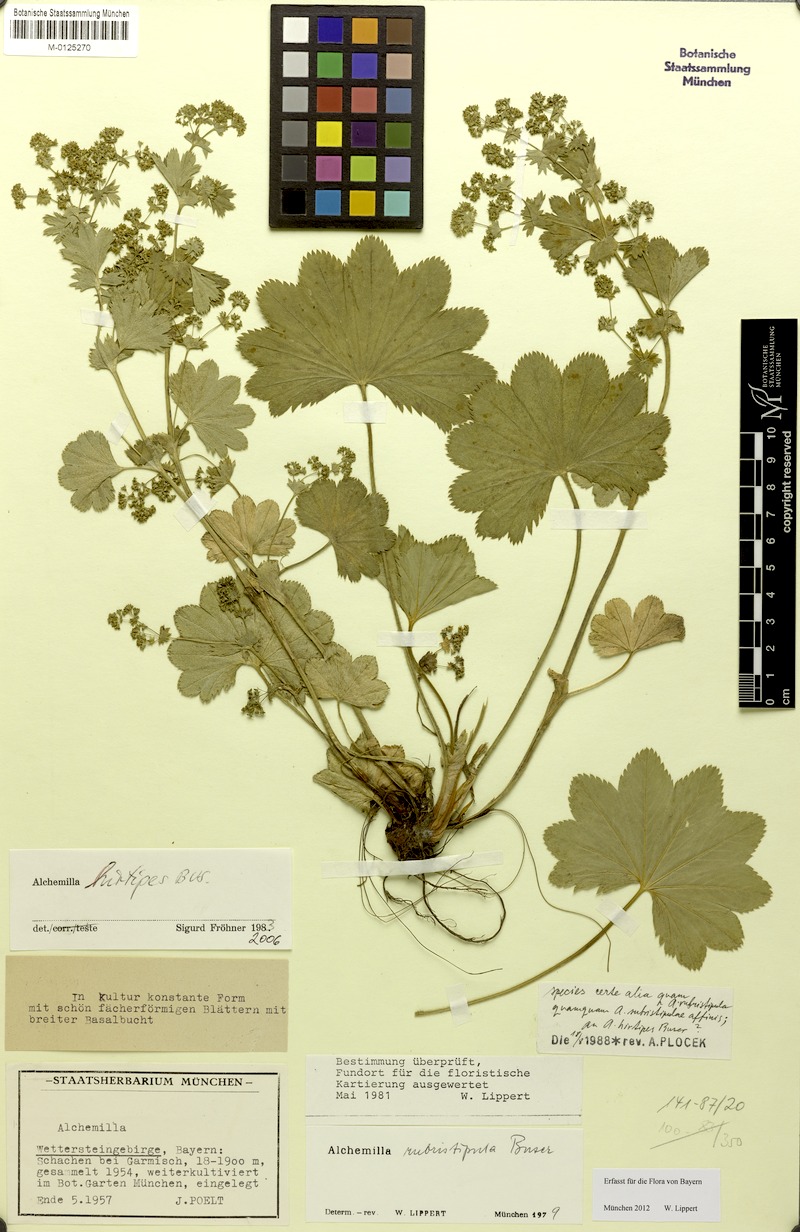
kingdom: Plantae
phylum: Tracheophyta
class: Magnoliopsida
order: Rosales
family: Rosaceae
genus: Alchemilla
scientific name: Alchemilla hirtipes
